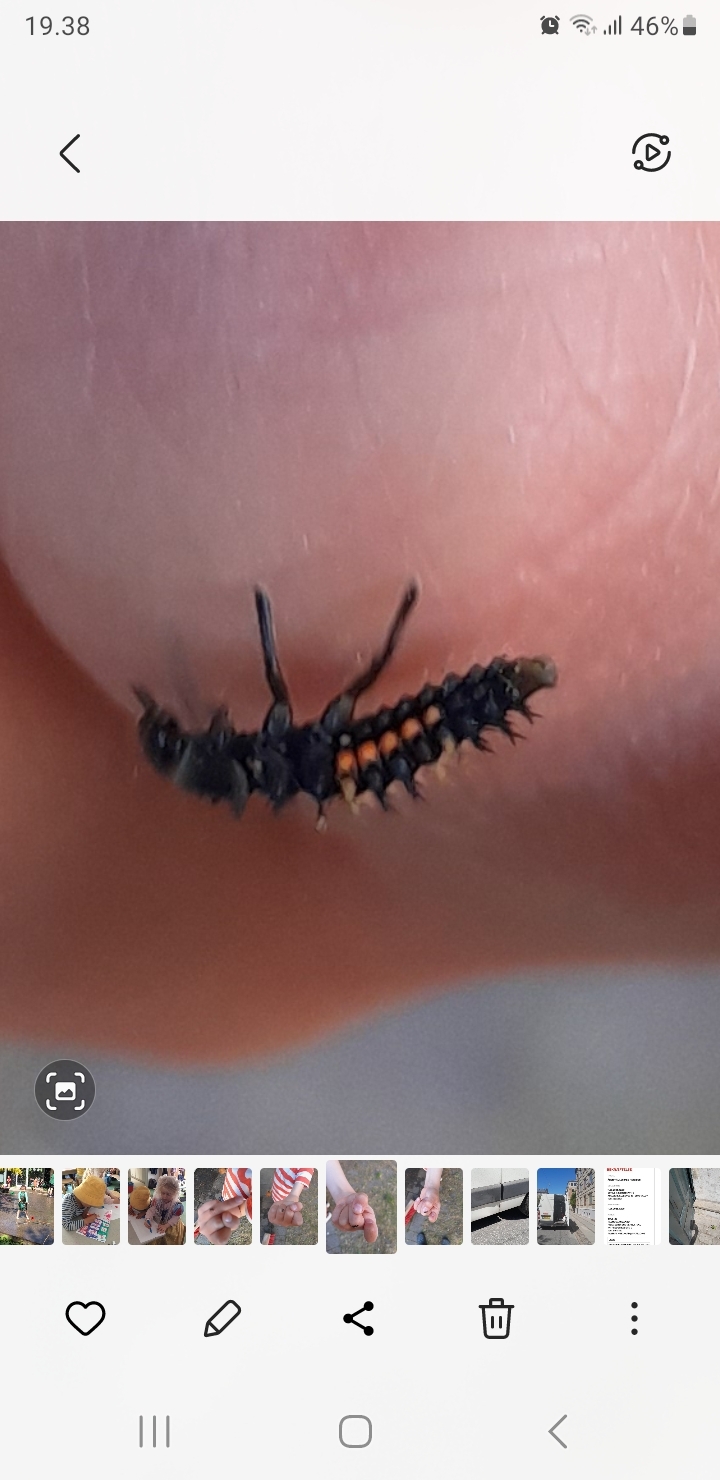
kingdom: Animalia
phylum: Arthropoda
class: Insecta
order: Coleoptera
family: Coccinellidae
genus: Harmonia
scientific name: Harmonia axyridis
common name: Harlekinmariehøne
